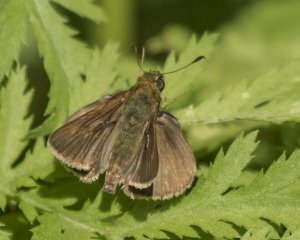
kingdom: Animalia
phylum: Arthropoda
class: Insecta
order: Lepidoptera
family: Hesperiidae
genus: Euphyes
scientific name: Euphyes vestris
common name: Dun Skipper
